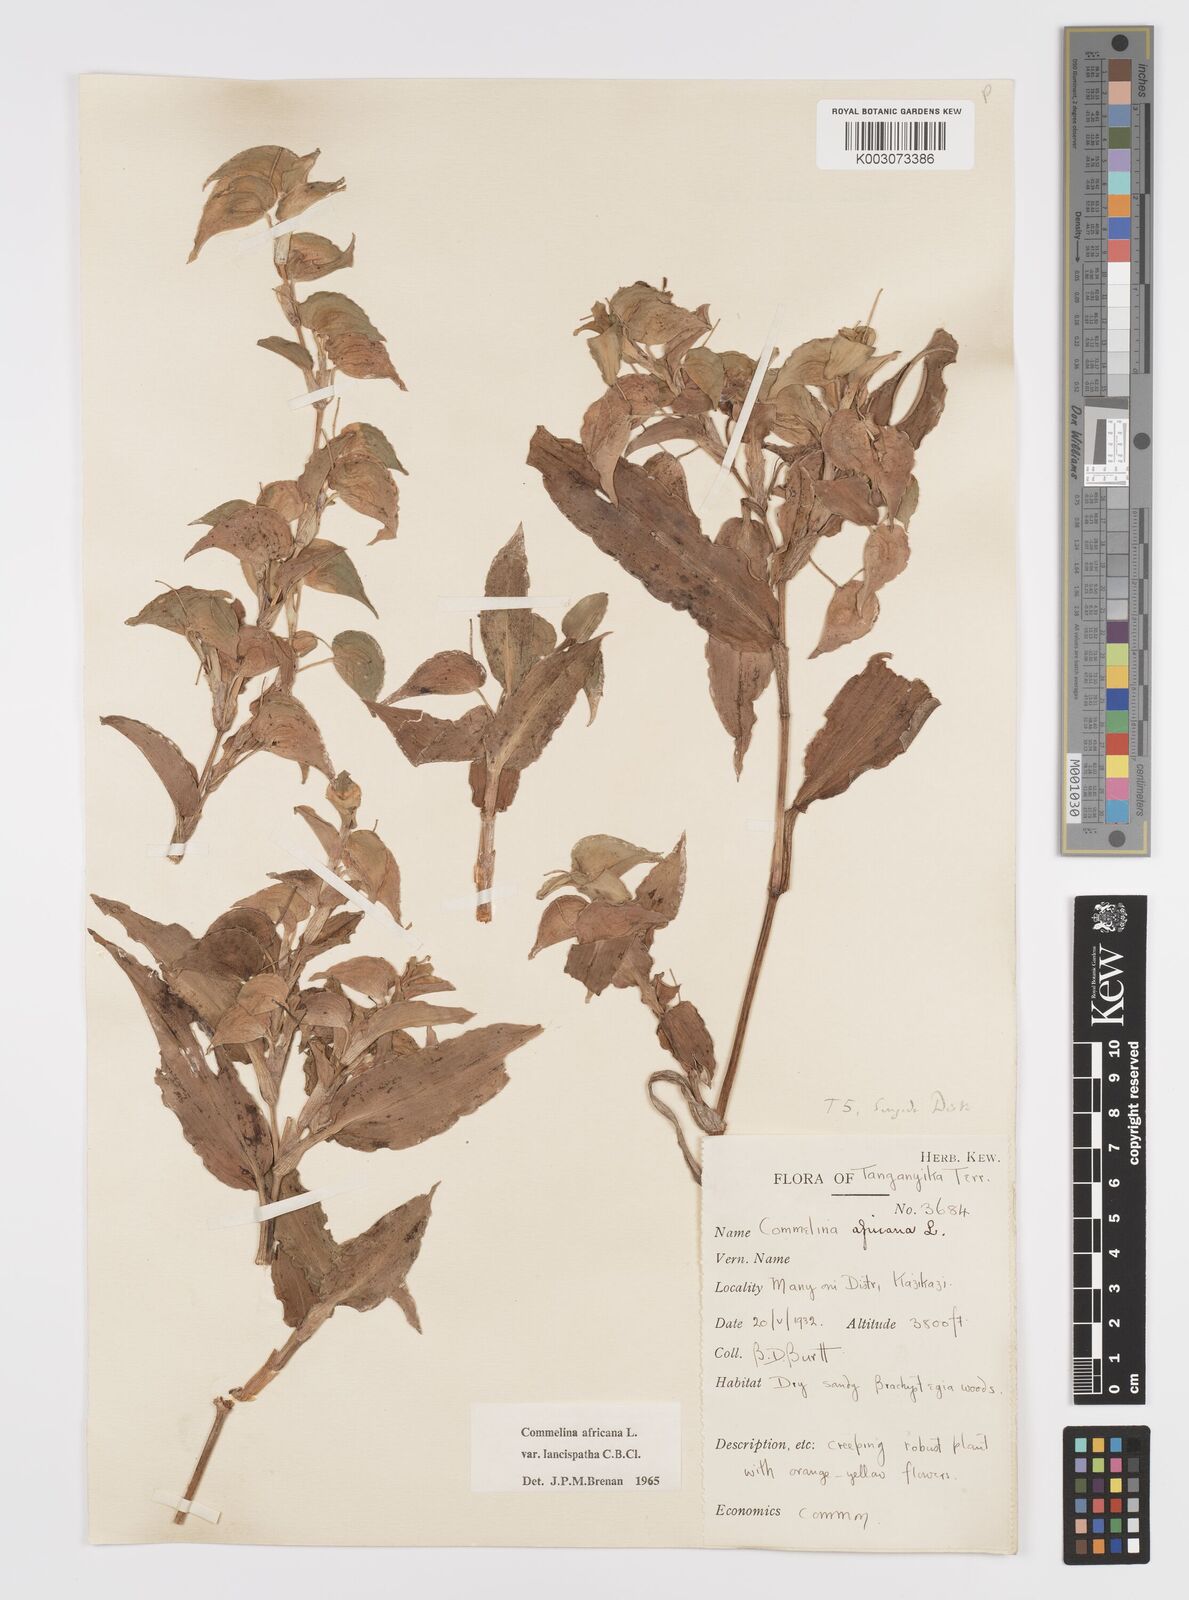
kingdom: Plantae
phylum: Tracheophyta
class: Liliopsida
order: Commelinales
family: Commelinaceae
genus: Commelina
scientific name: Commelina africana
